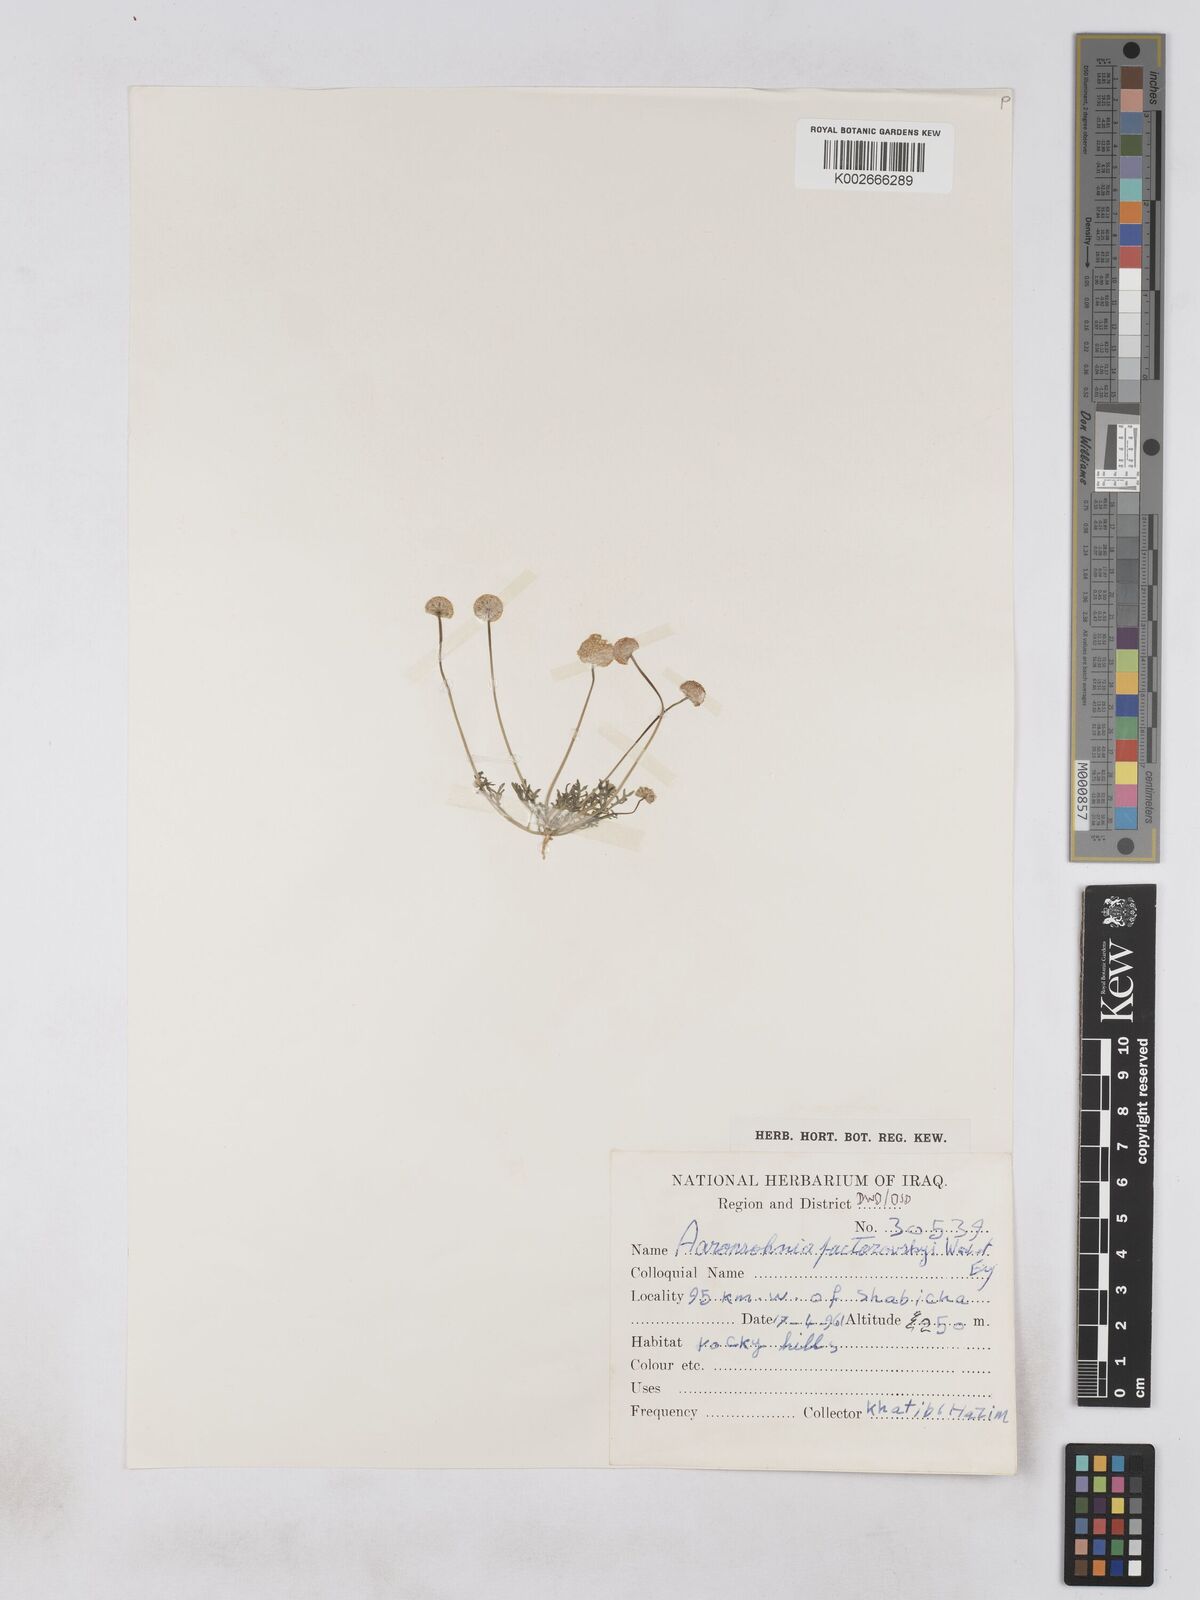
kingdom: Plantae
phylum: Tracheophyta
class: Magnoliopsida
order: Asterales
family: Asteraceae
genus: Otoglyphis
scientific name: Otoglyphis factorovskyi
